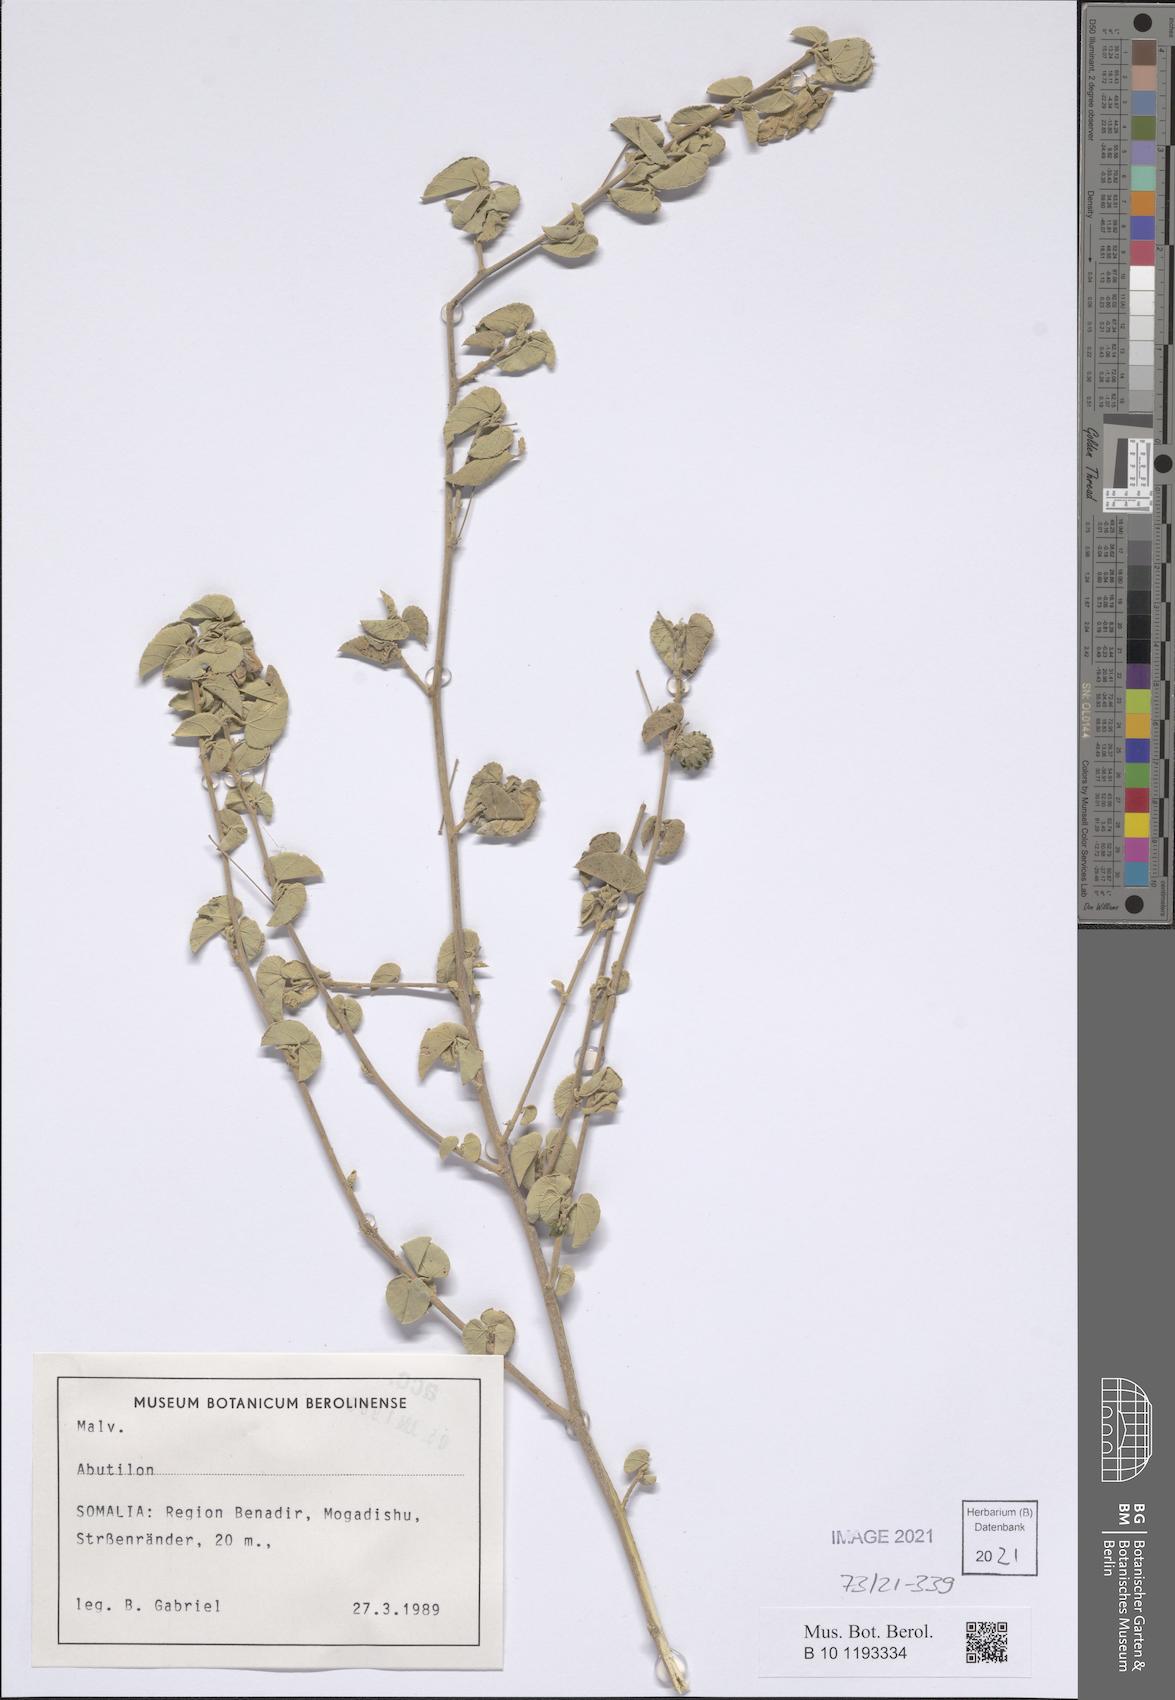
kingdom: Plantae
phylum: Tracheophyta
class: Magnoliopsida
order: Malvales
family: Malvaceae
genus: Abutilon
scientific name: Abutilon
